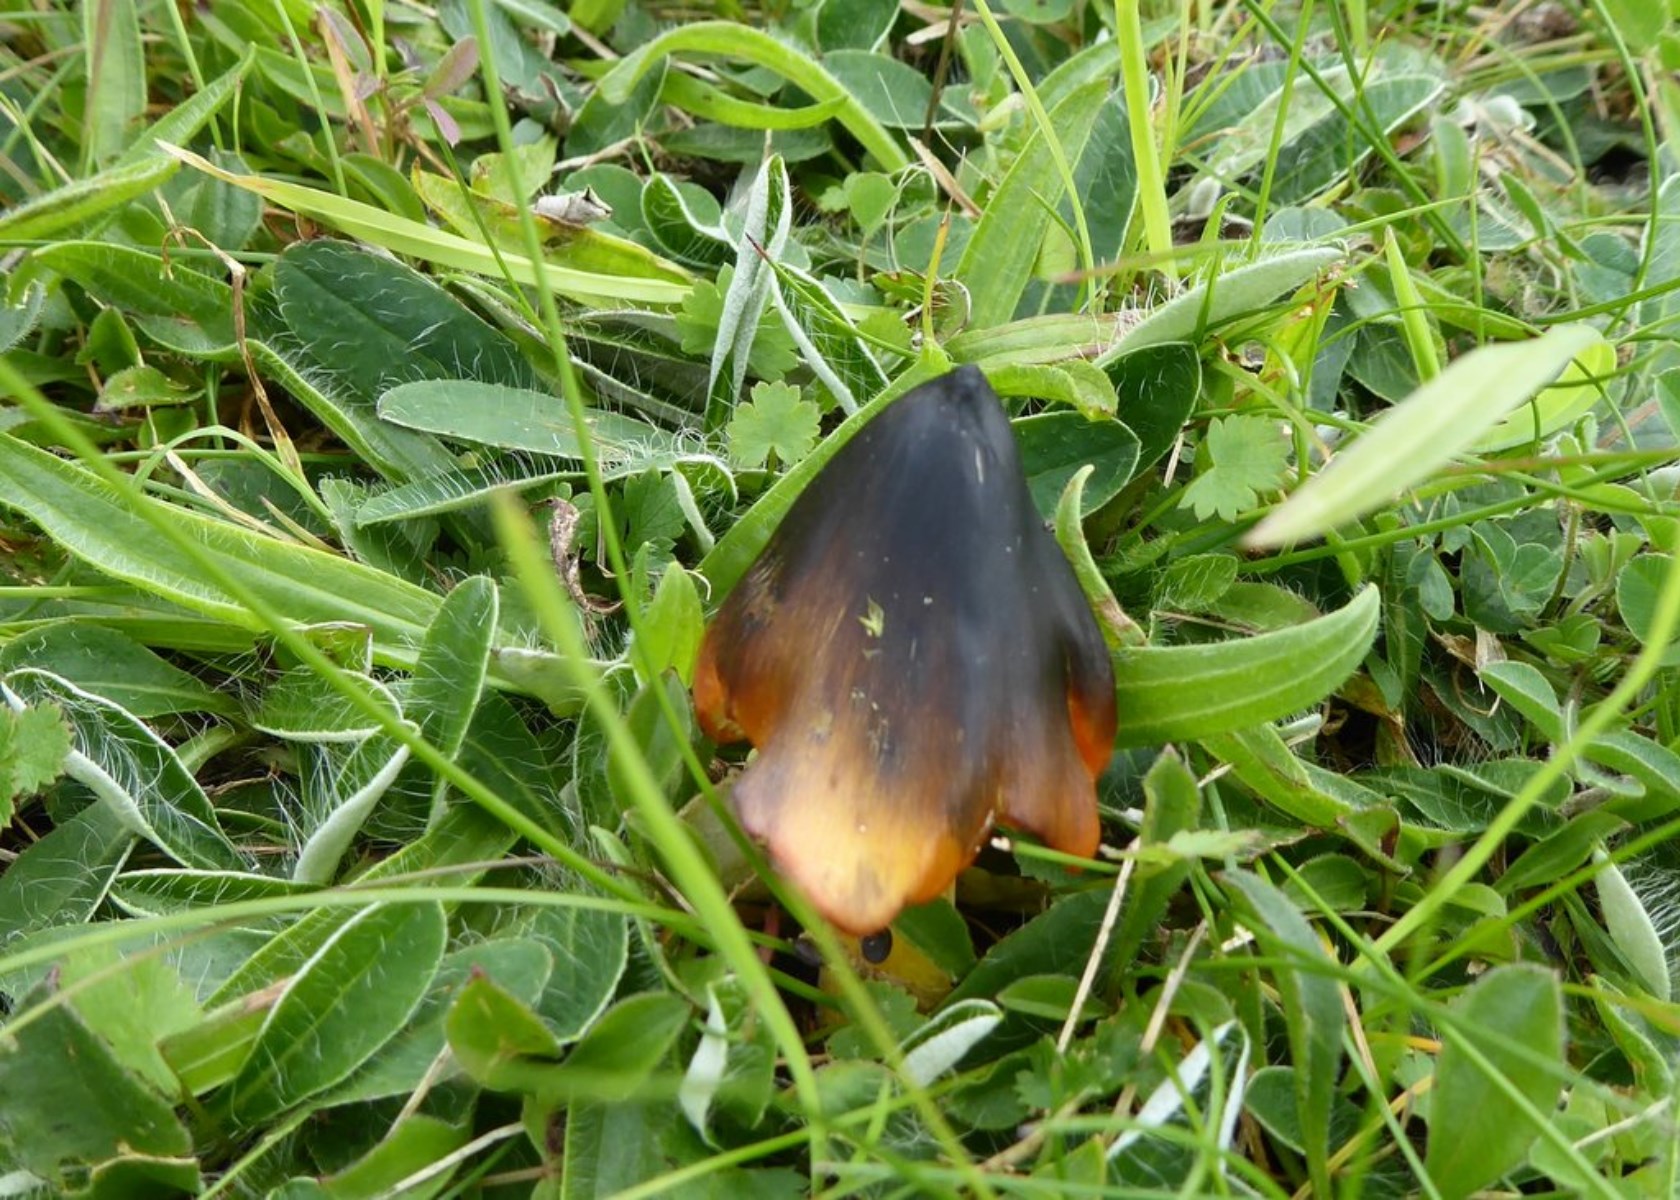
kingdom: Fungi
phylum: Basidiomycota
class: Agaricomycetes
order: Agaricales
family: Hygrophoraceae
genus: Hygrocybe
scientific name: Hygrocybe conica
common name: kegle-vokshat
